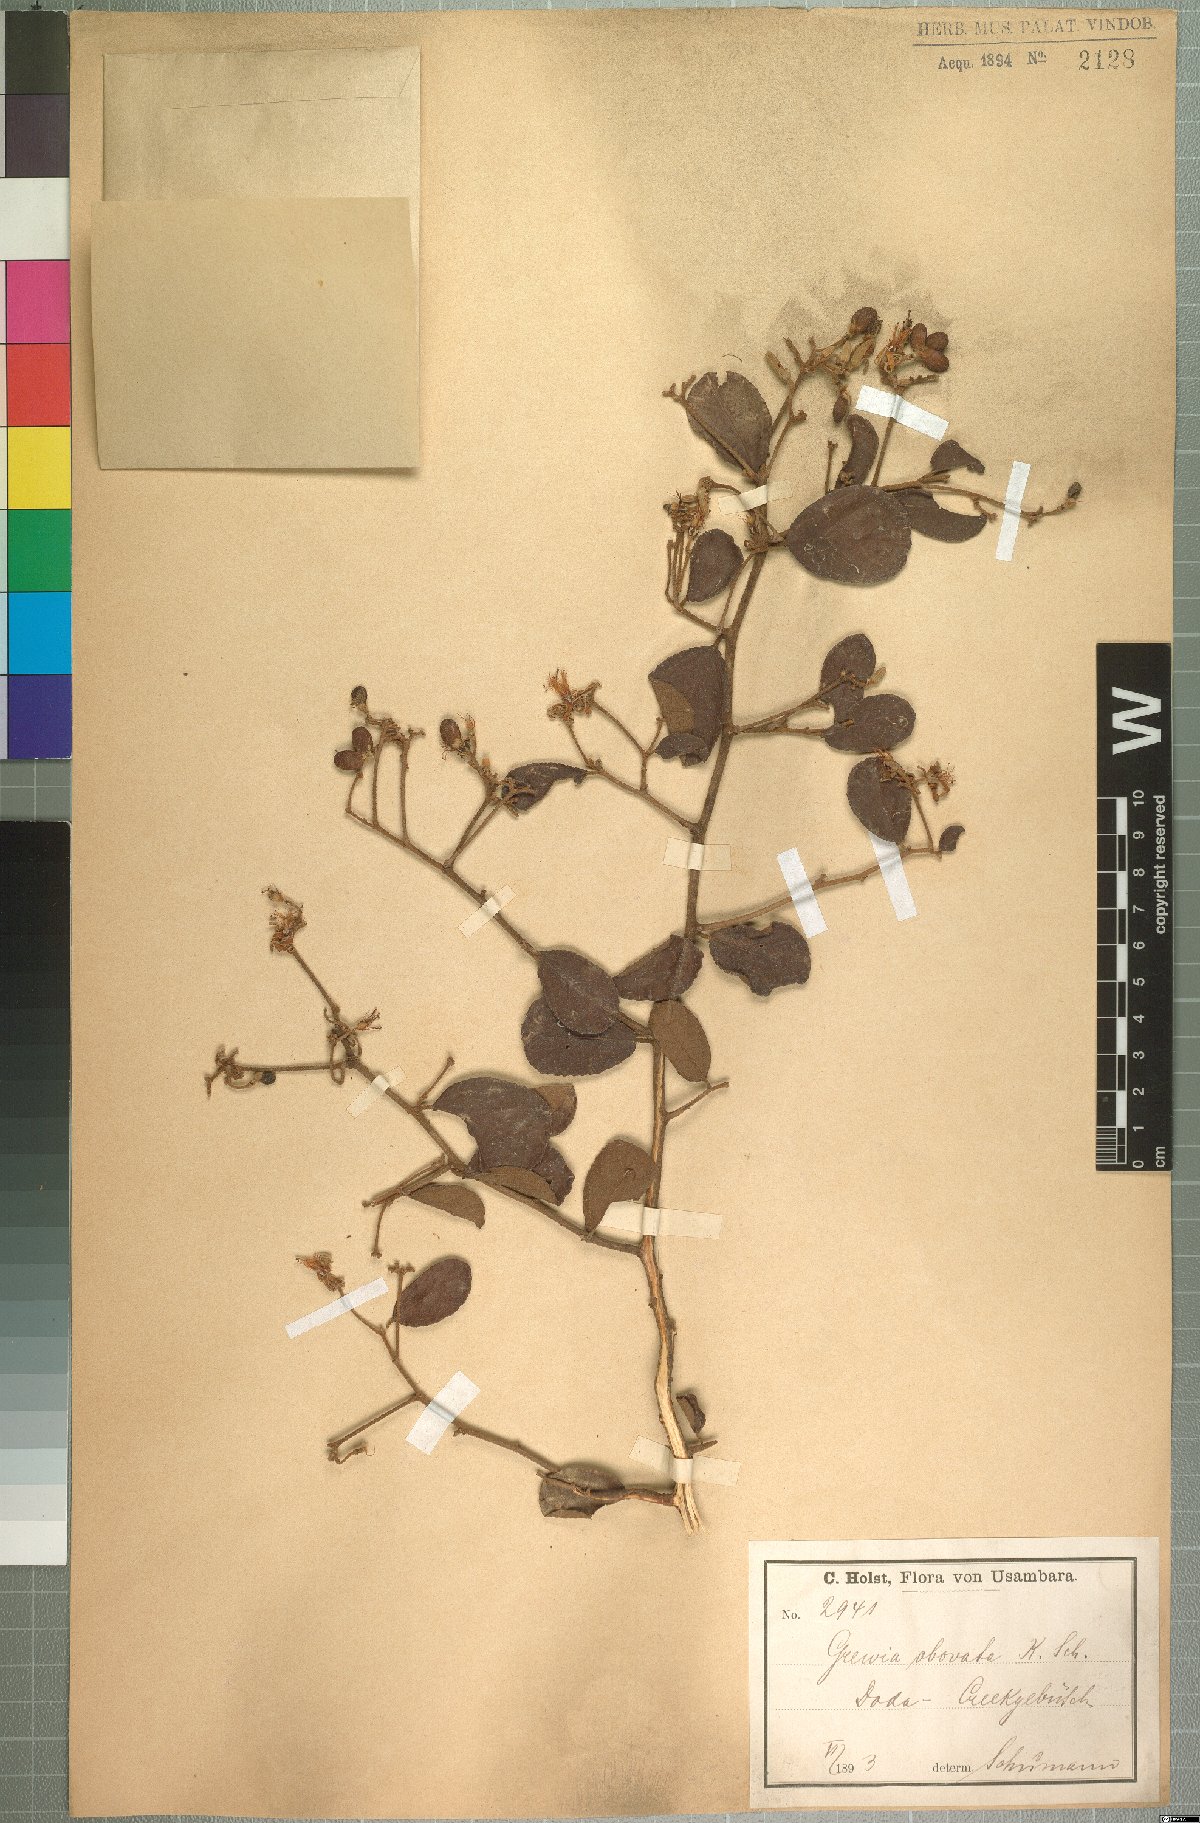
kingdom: Plantae
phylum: Tracheophyta
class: Magnoliopsida
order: Malvales
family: Malvaceae
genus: Grewia
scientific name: Grewia apetala
